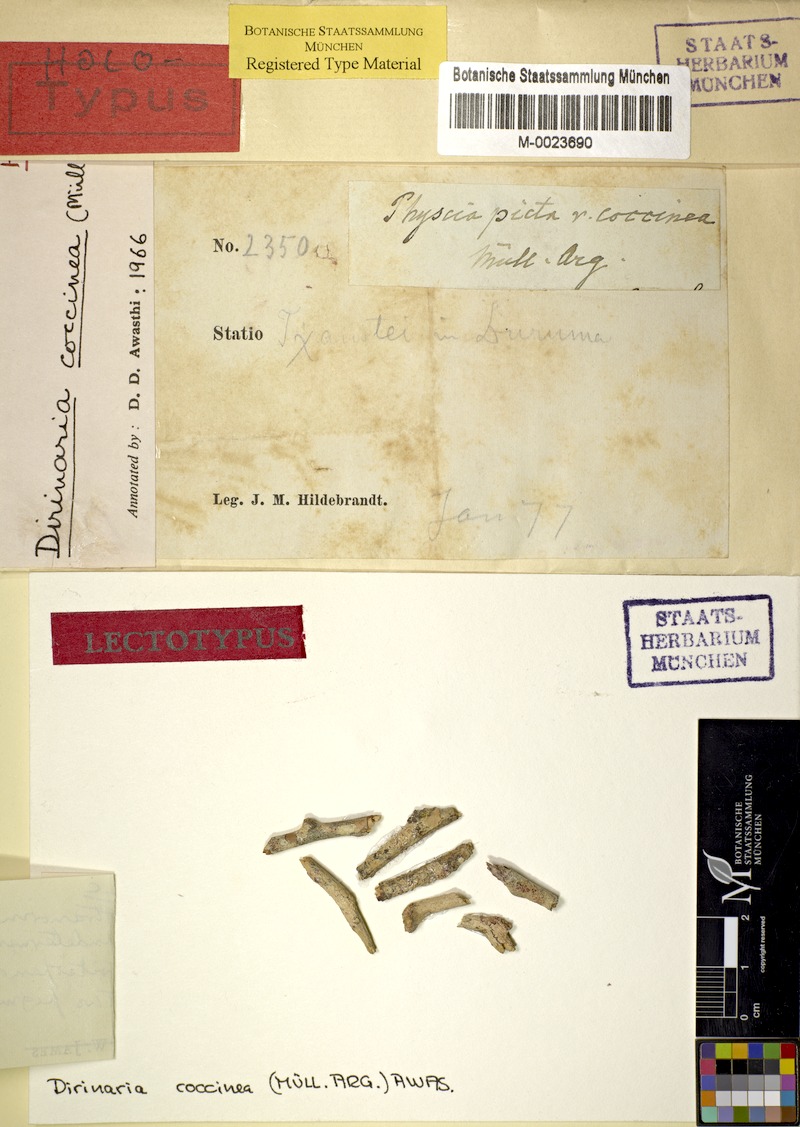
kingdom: Fungi
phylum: Ascomycota
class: Lecanoromycetes
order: Caliciales
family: Caliciaceae
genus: Dirinaria
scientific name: Dirinaria coccinea
